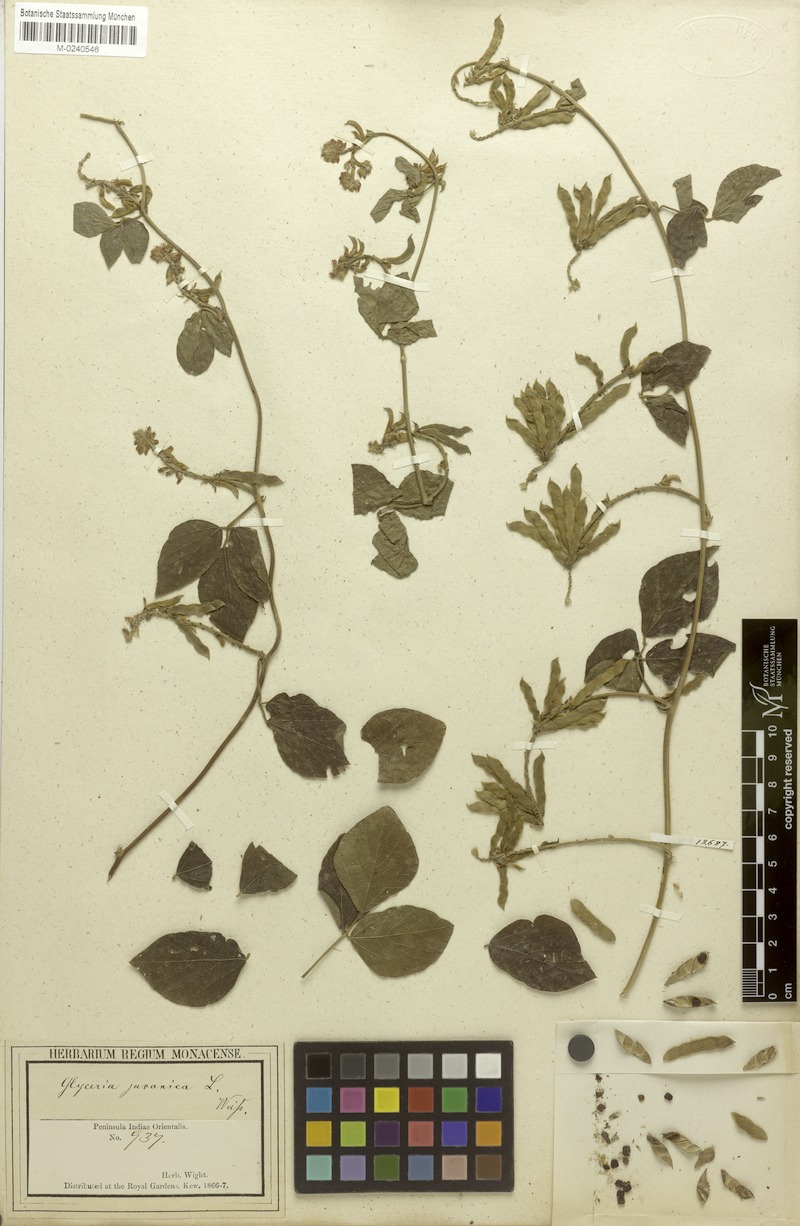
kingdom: Plantae
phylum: Tracheophyta
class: Magnoliopsida
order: Fabales
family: Fabaceae
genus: Neonotonia
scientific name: Neonotonia wightii
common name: Perennial soybean
